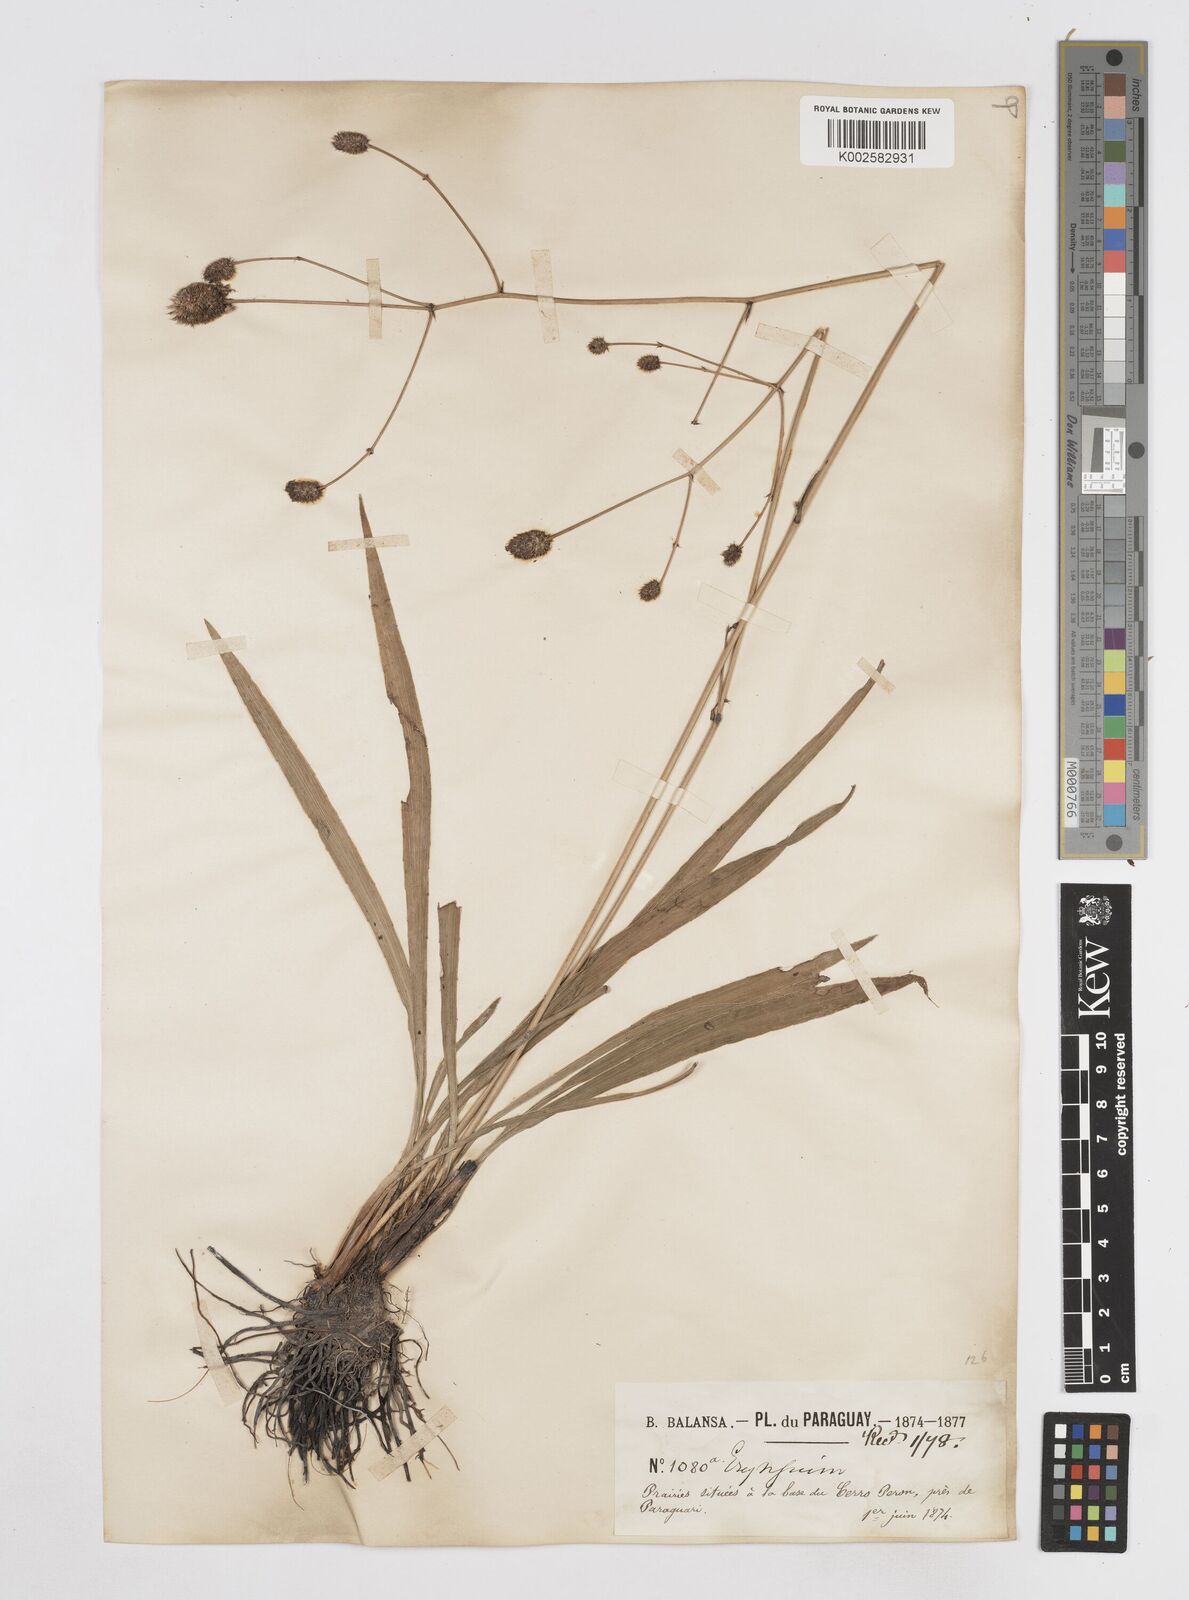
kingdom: Plantae
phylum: Tracheophyta
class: Magnoliopsida
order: Apiales
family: Apiaceae
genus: Eryngium
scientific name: Eryngium sanguisorba
